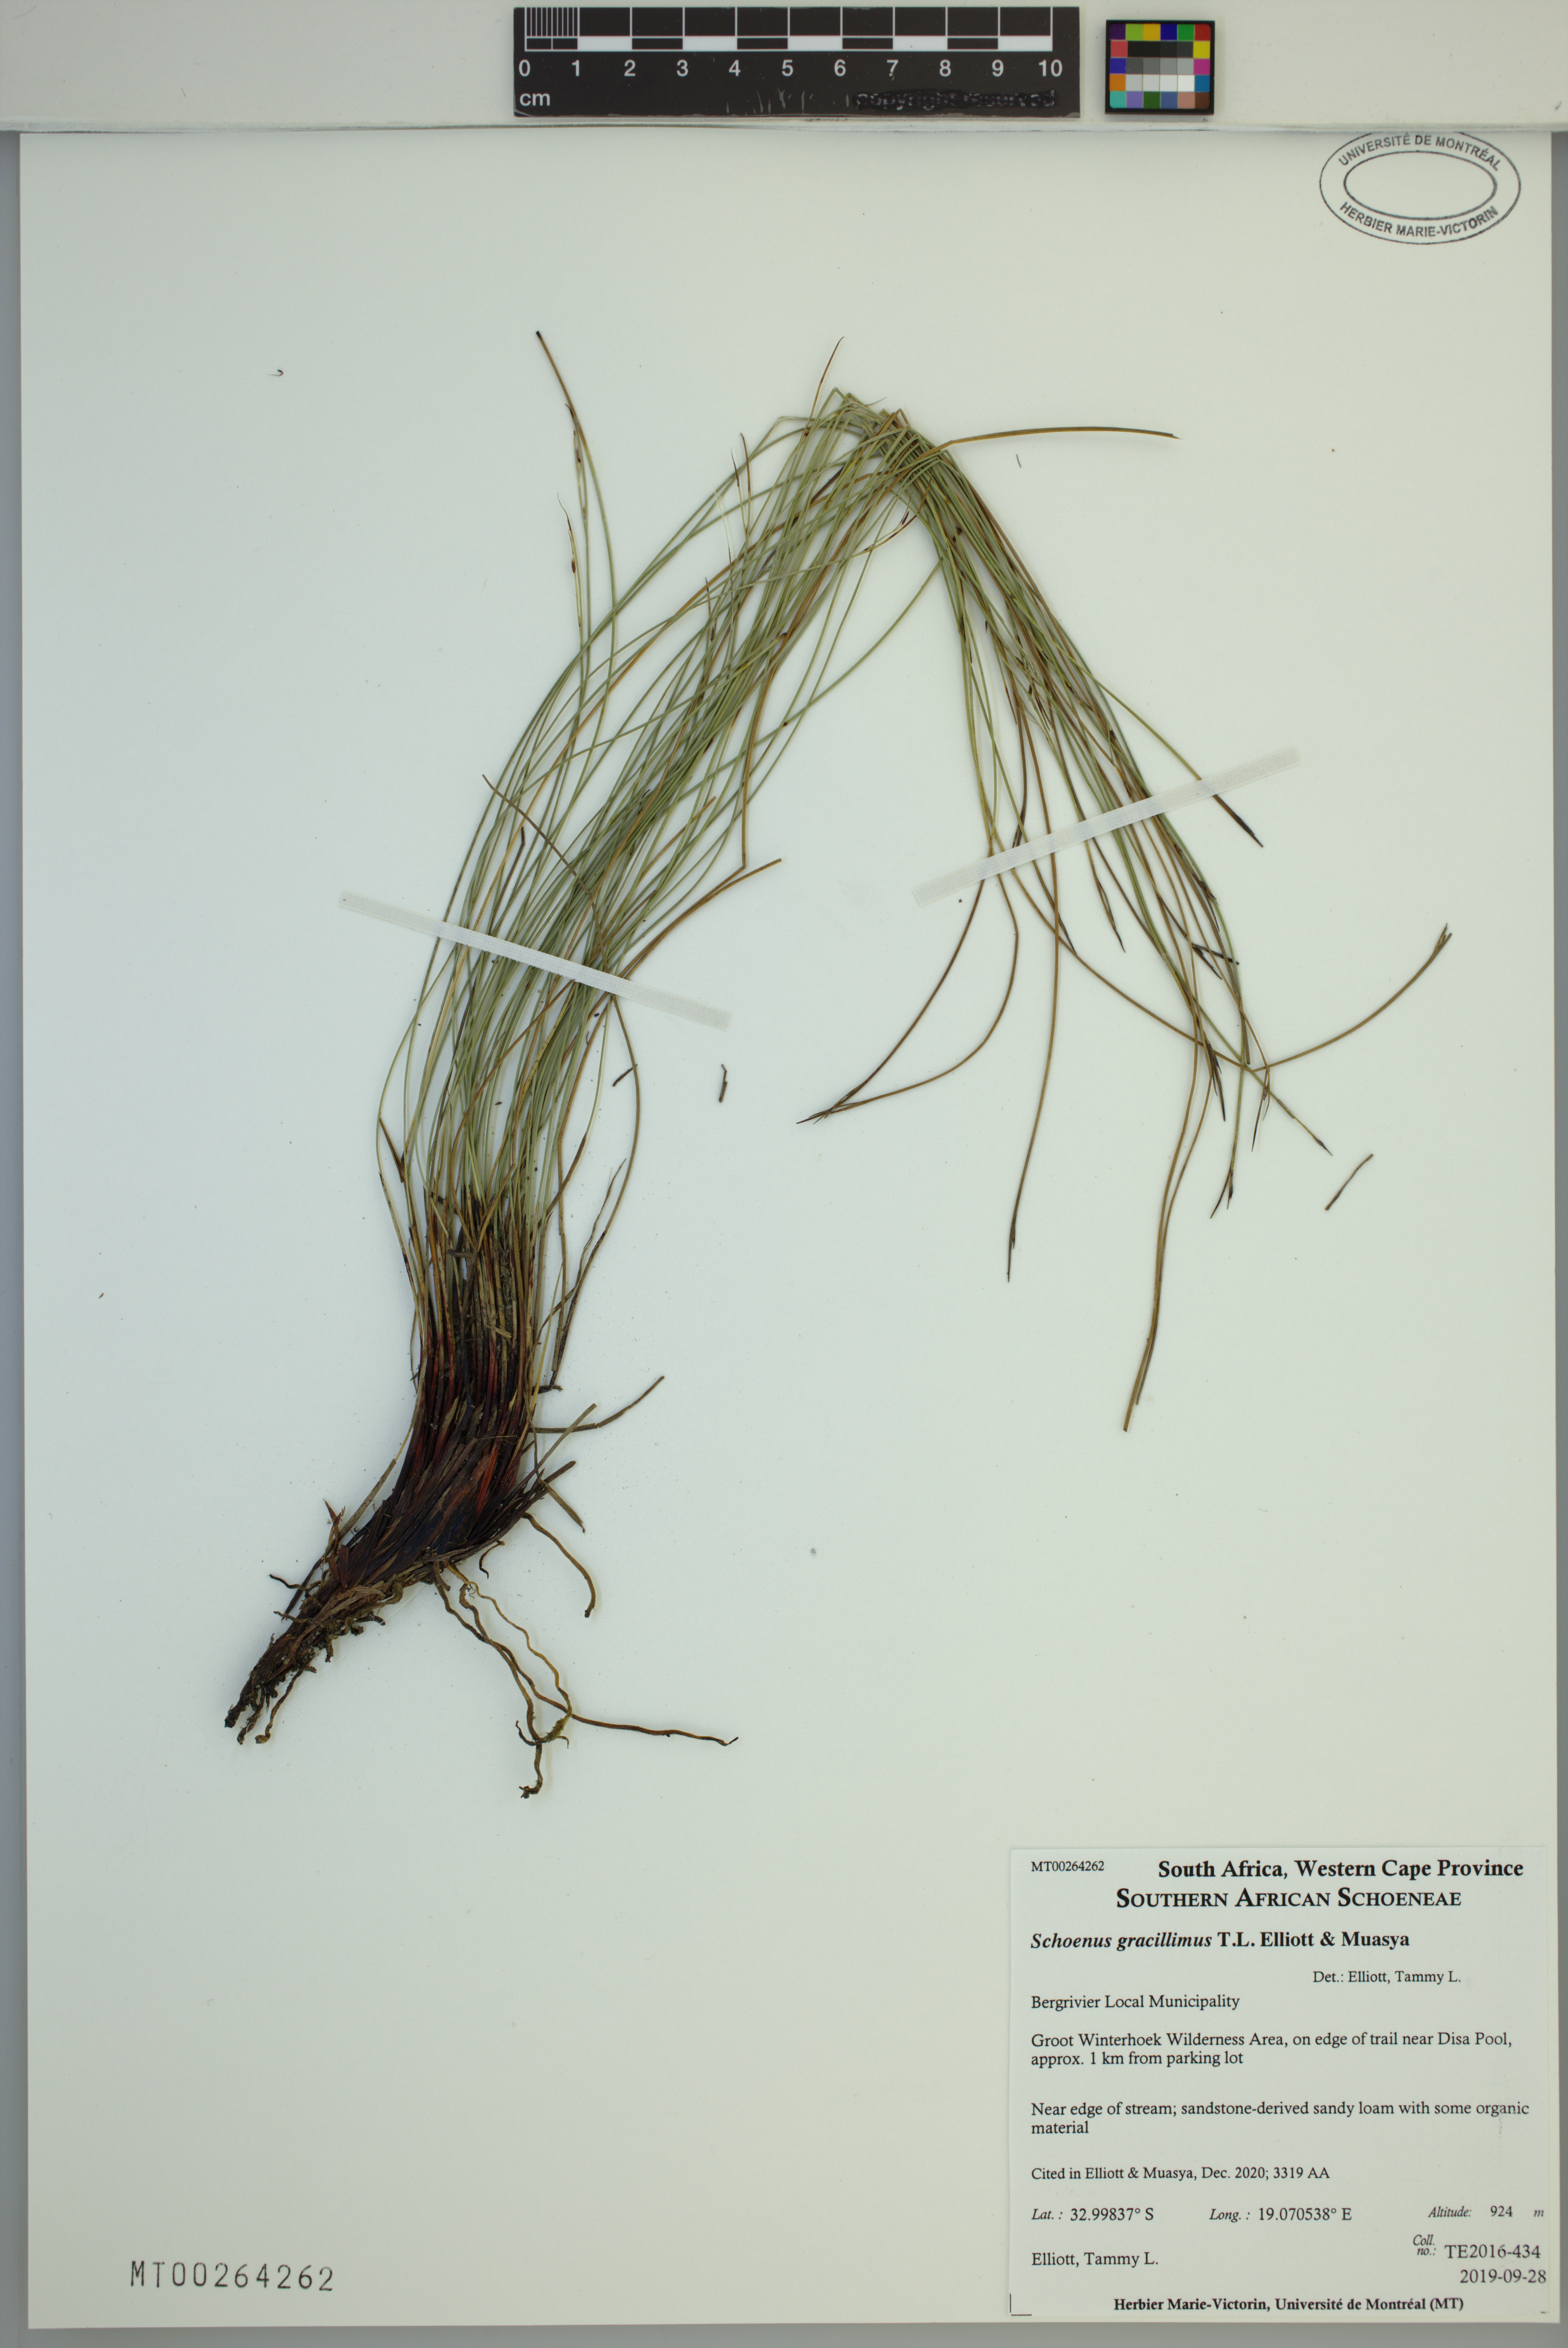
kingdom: Plantae
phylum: Tracheophyta
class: Liliopsida
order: Poales
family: Cyperaceae
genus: Schoenus
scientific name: Schoenus gracillimus
